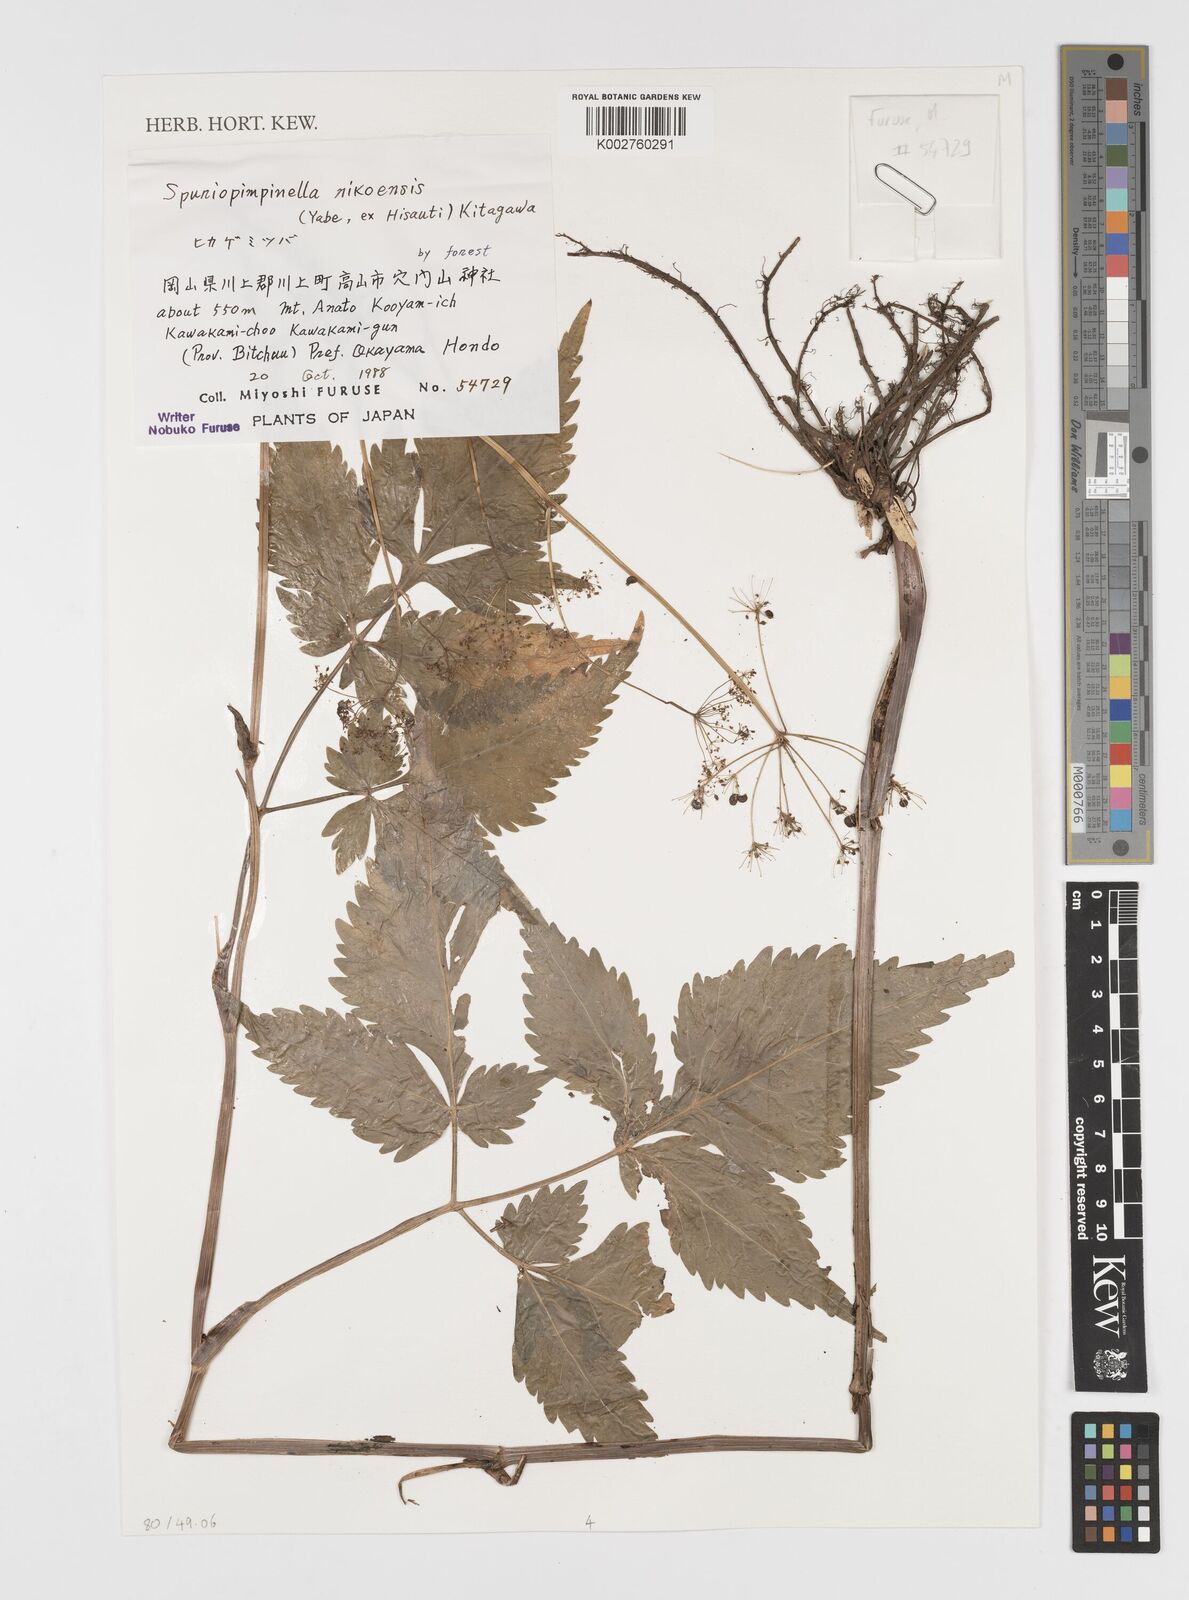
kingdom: Plantae
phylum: Tracheophyta
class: Magnoliopsida
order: Apiales
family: Apiaceae
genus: Spuriopimpinella
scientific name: Spuriopimpinella brachycarpa
